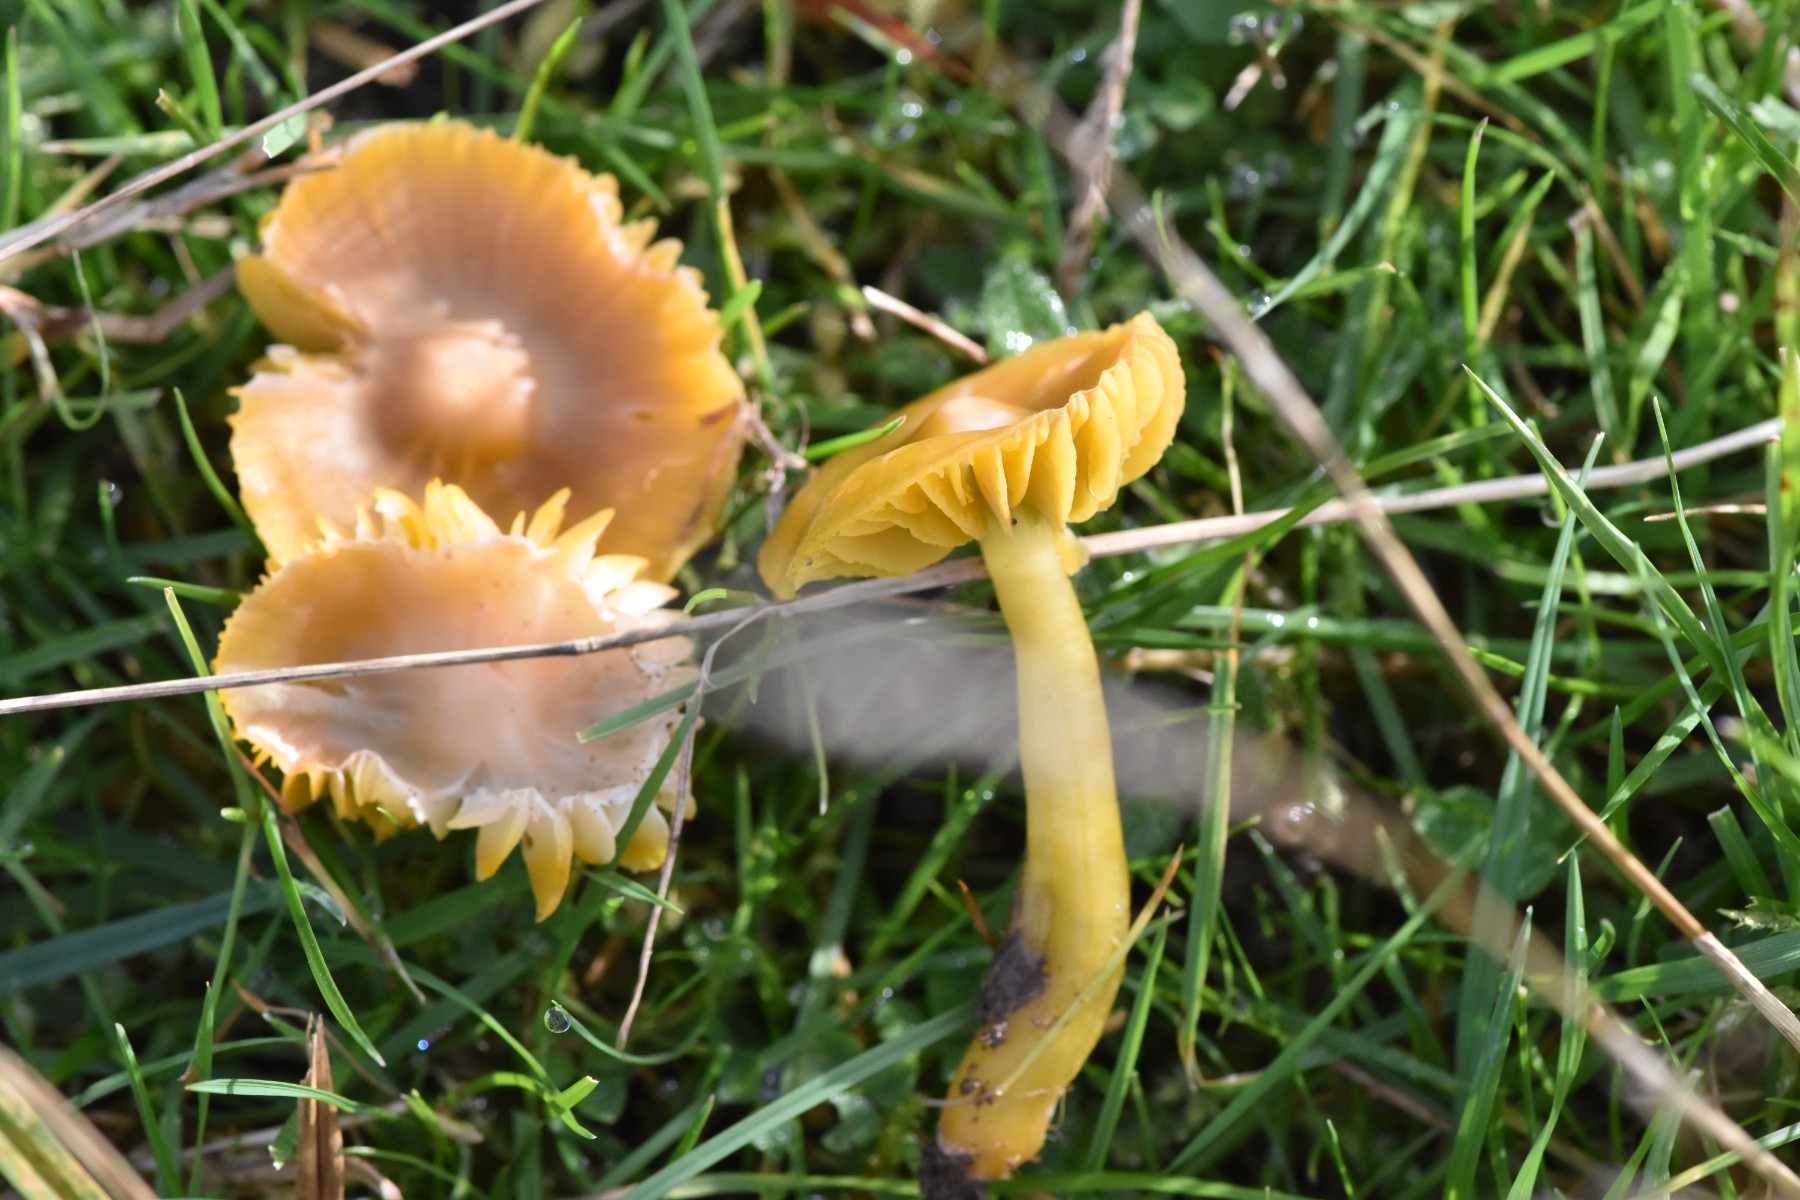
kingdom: Fungi
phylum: Basidiomycota
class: Agaricomycetes
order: Agaricales
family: Hygrophoraceae
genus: Gliophorus
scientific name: Gliophorus psittacinus
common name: papegøje-vokshat
